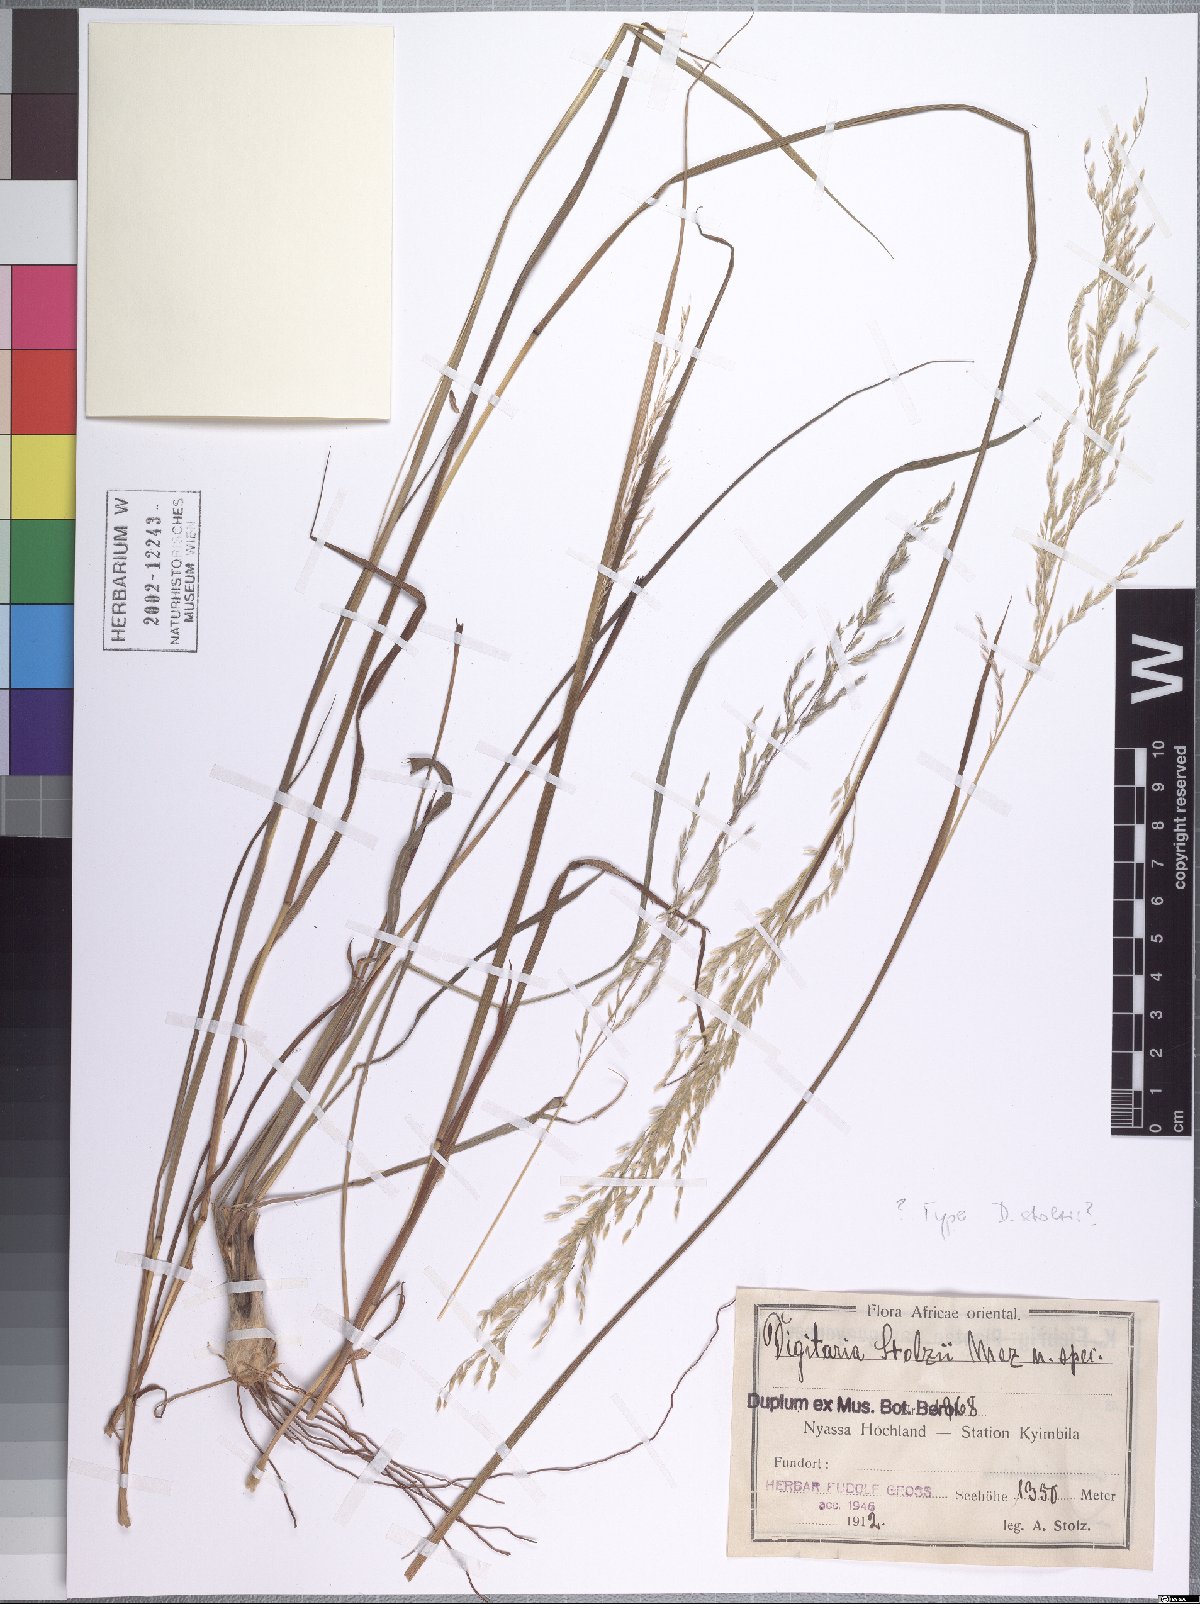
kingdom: Plantae
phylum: Tracheophyta
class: Liliopsida
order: Poales
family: Poaceae
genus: Digitaria
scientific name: Digitaria flaccida
